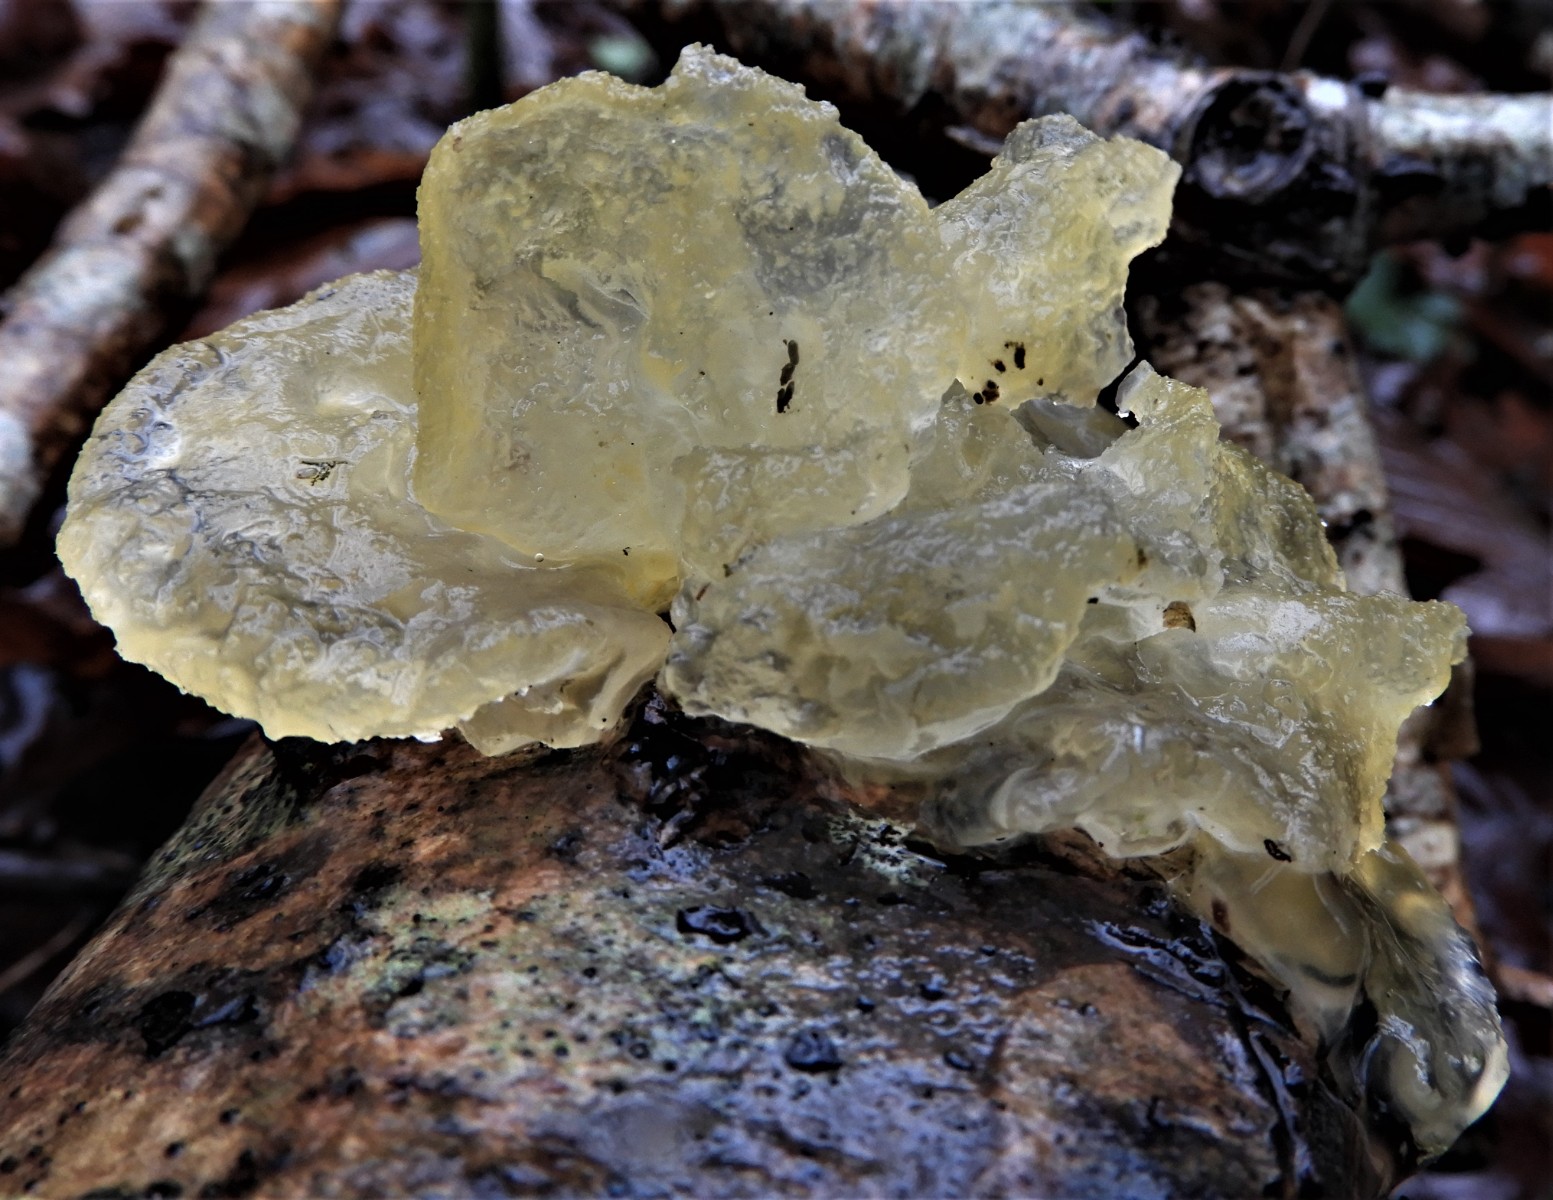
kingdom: Fungi
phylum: Basidiomycota
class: Tremellomycetes
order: Tremellales
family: Tremellaceae
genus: Tremella
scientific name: Tremella mesenterica
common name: gul bævresvamp
